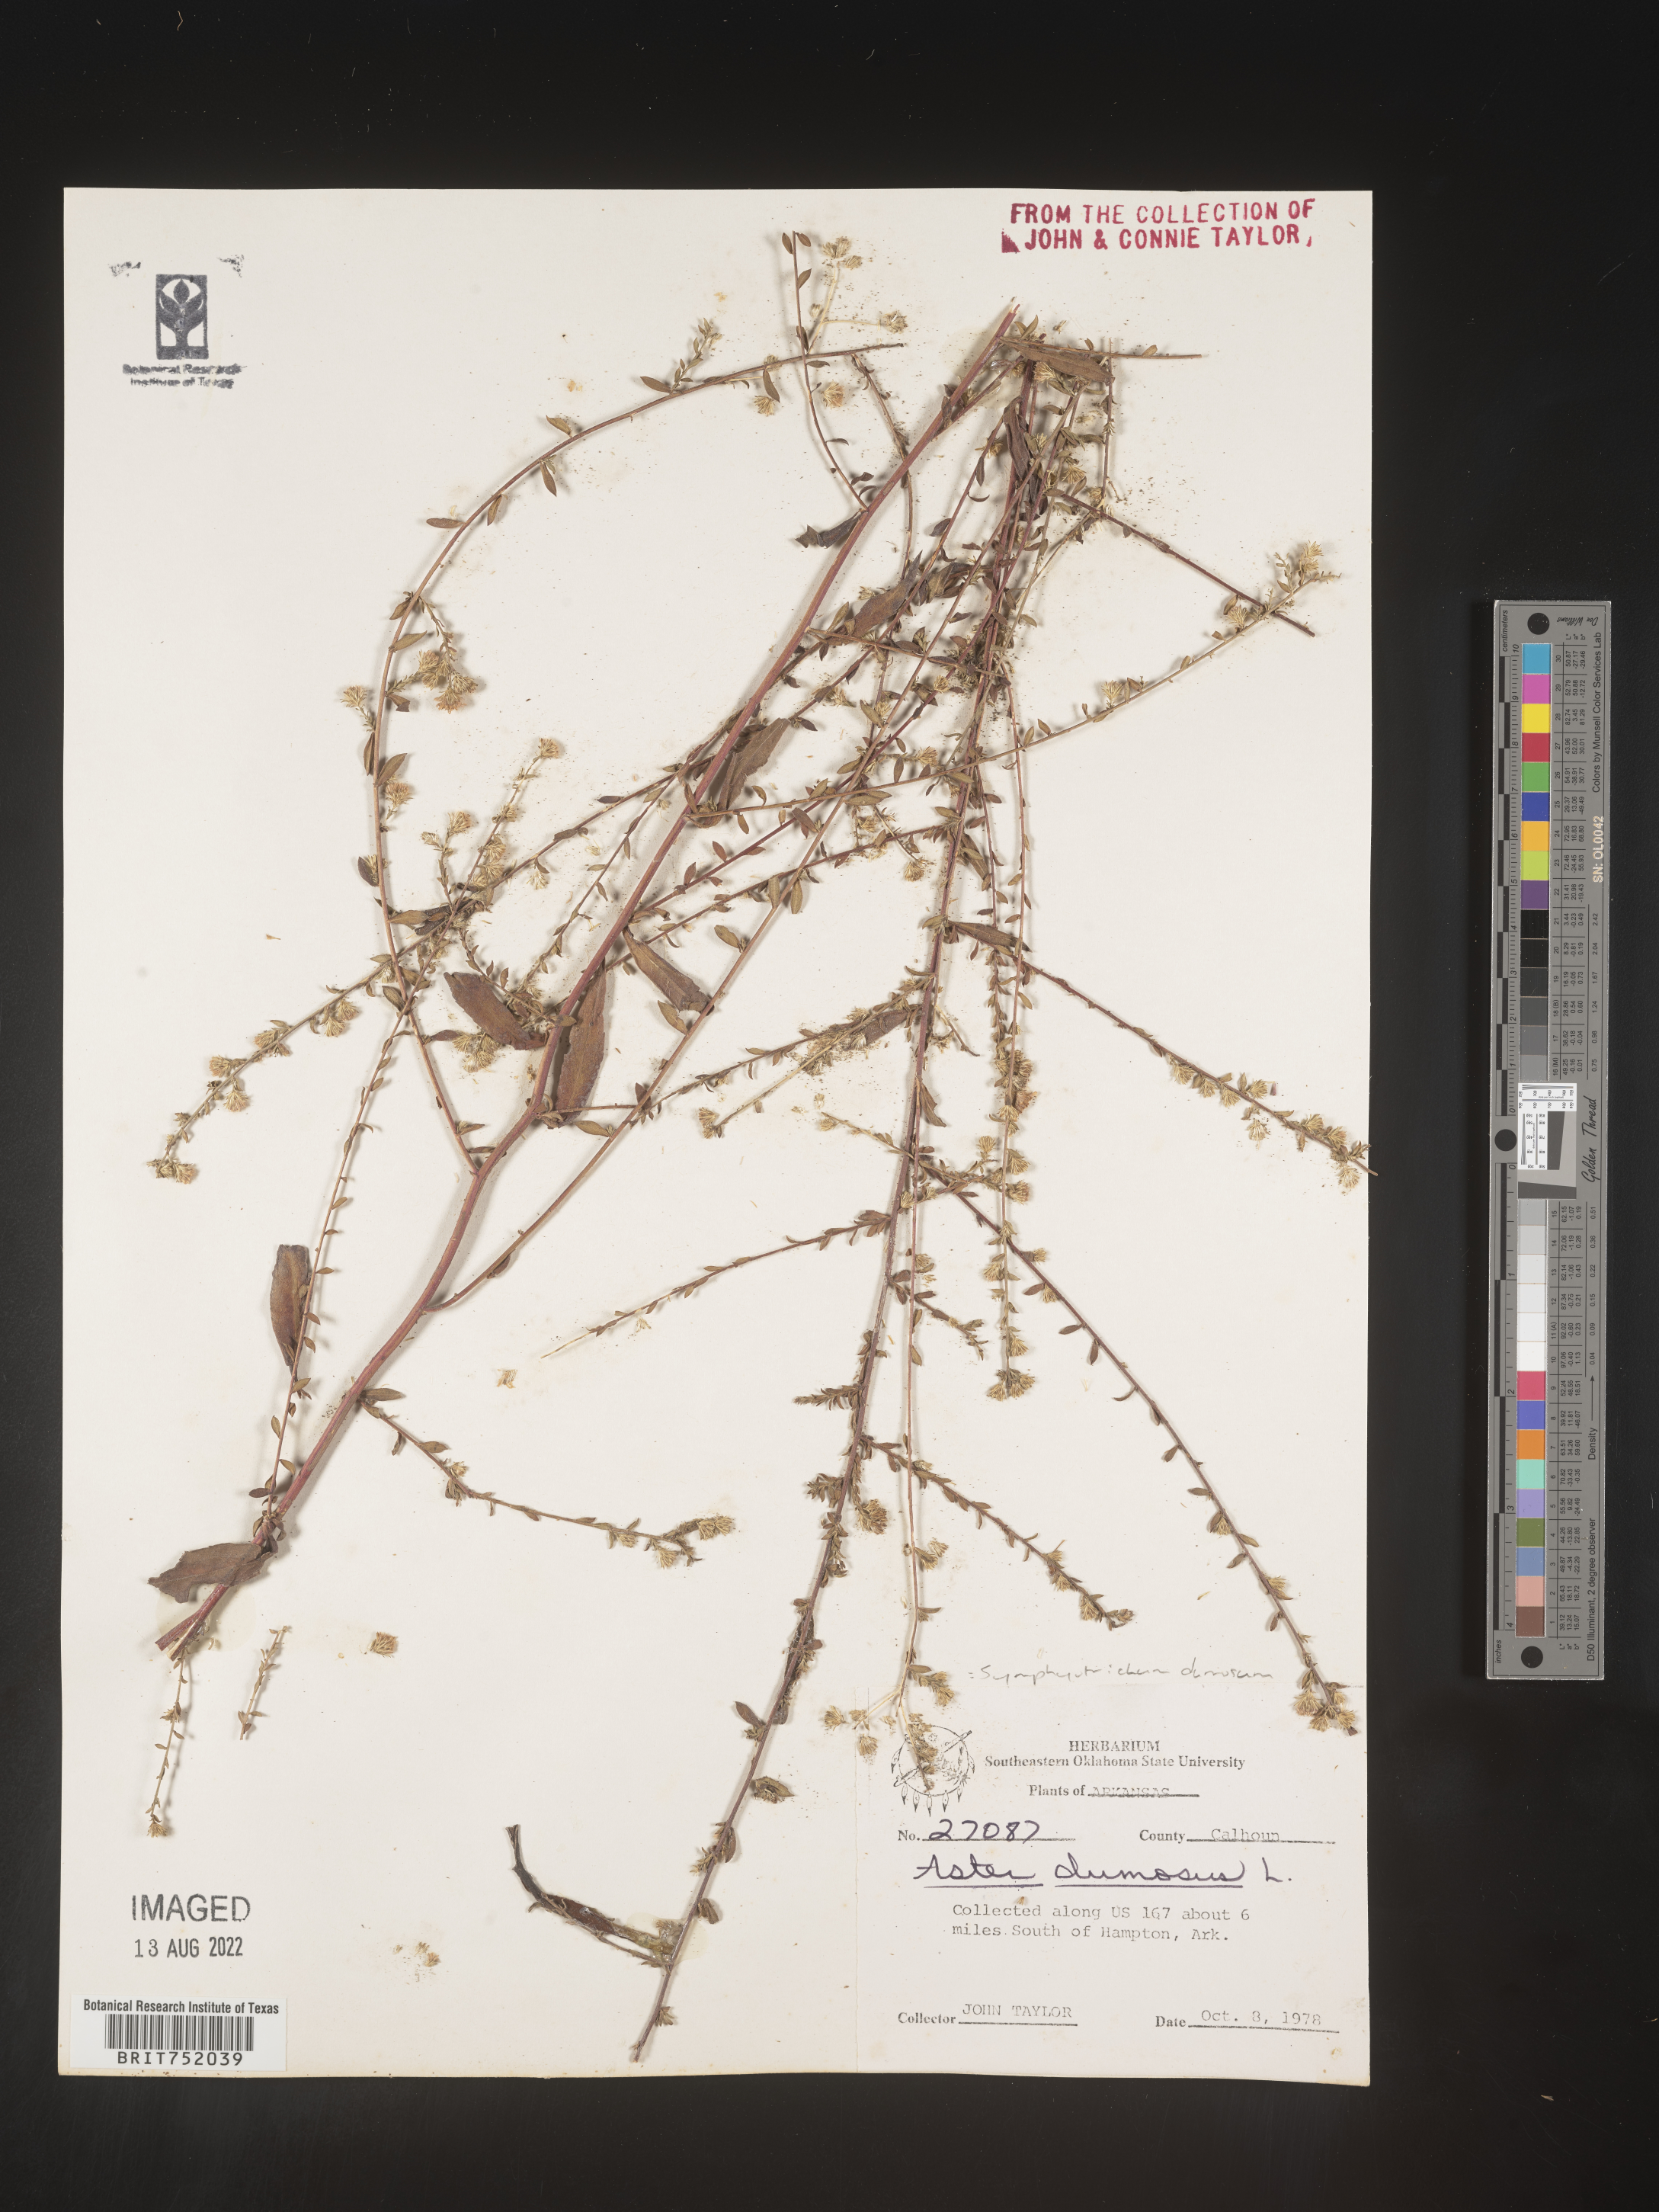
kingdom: Plantae
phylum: Tracheophyta
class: Magnoliopsida
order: Asterales
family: Asteraceae
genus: Symphyotrichum
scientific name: Symphyotrichum dumosum
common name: Bushy aster
